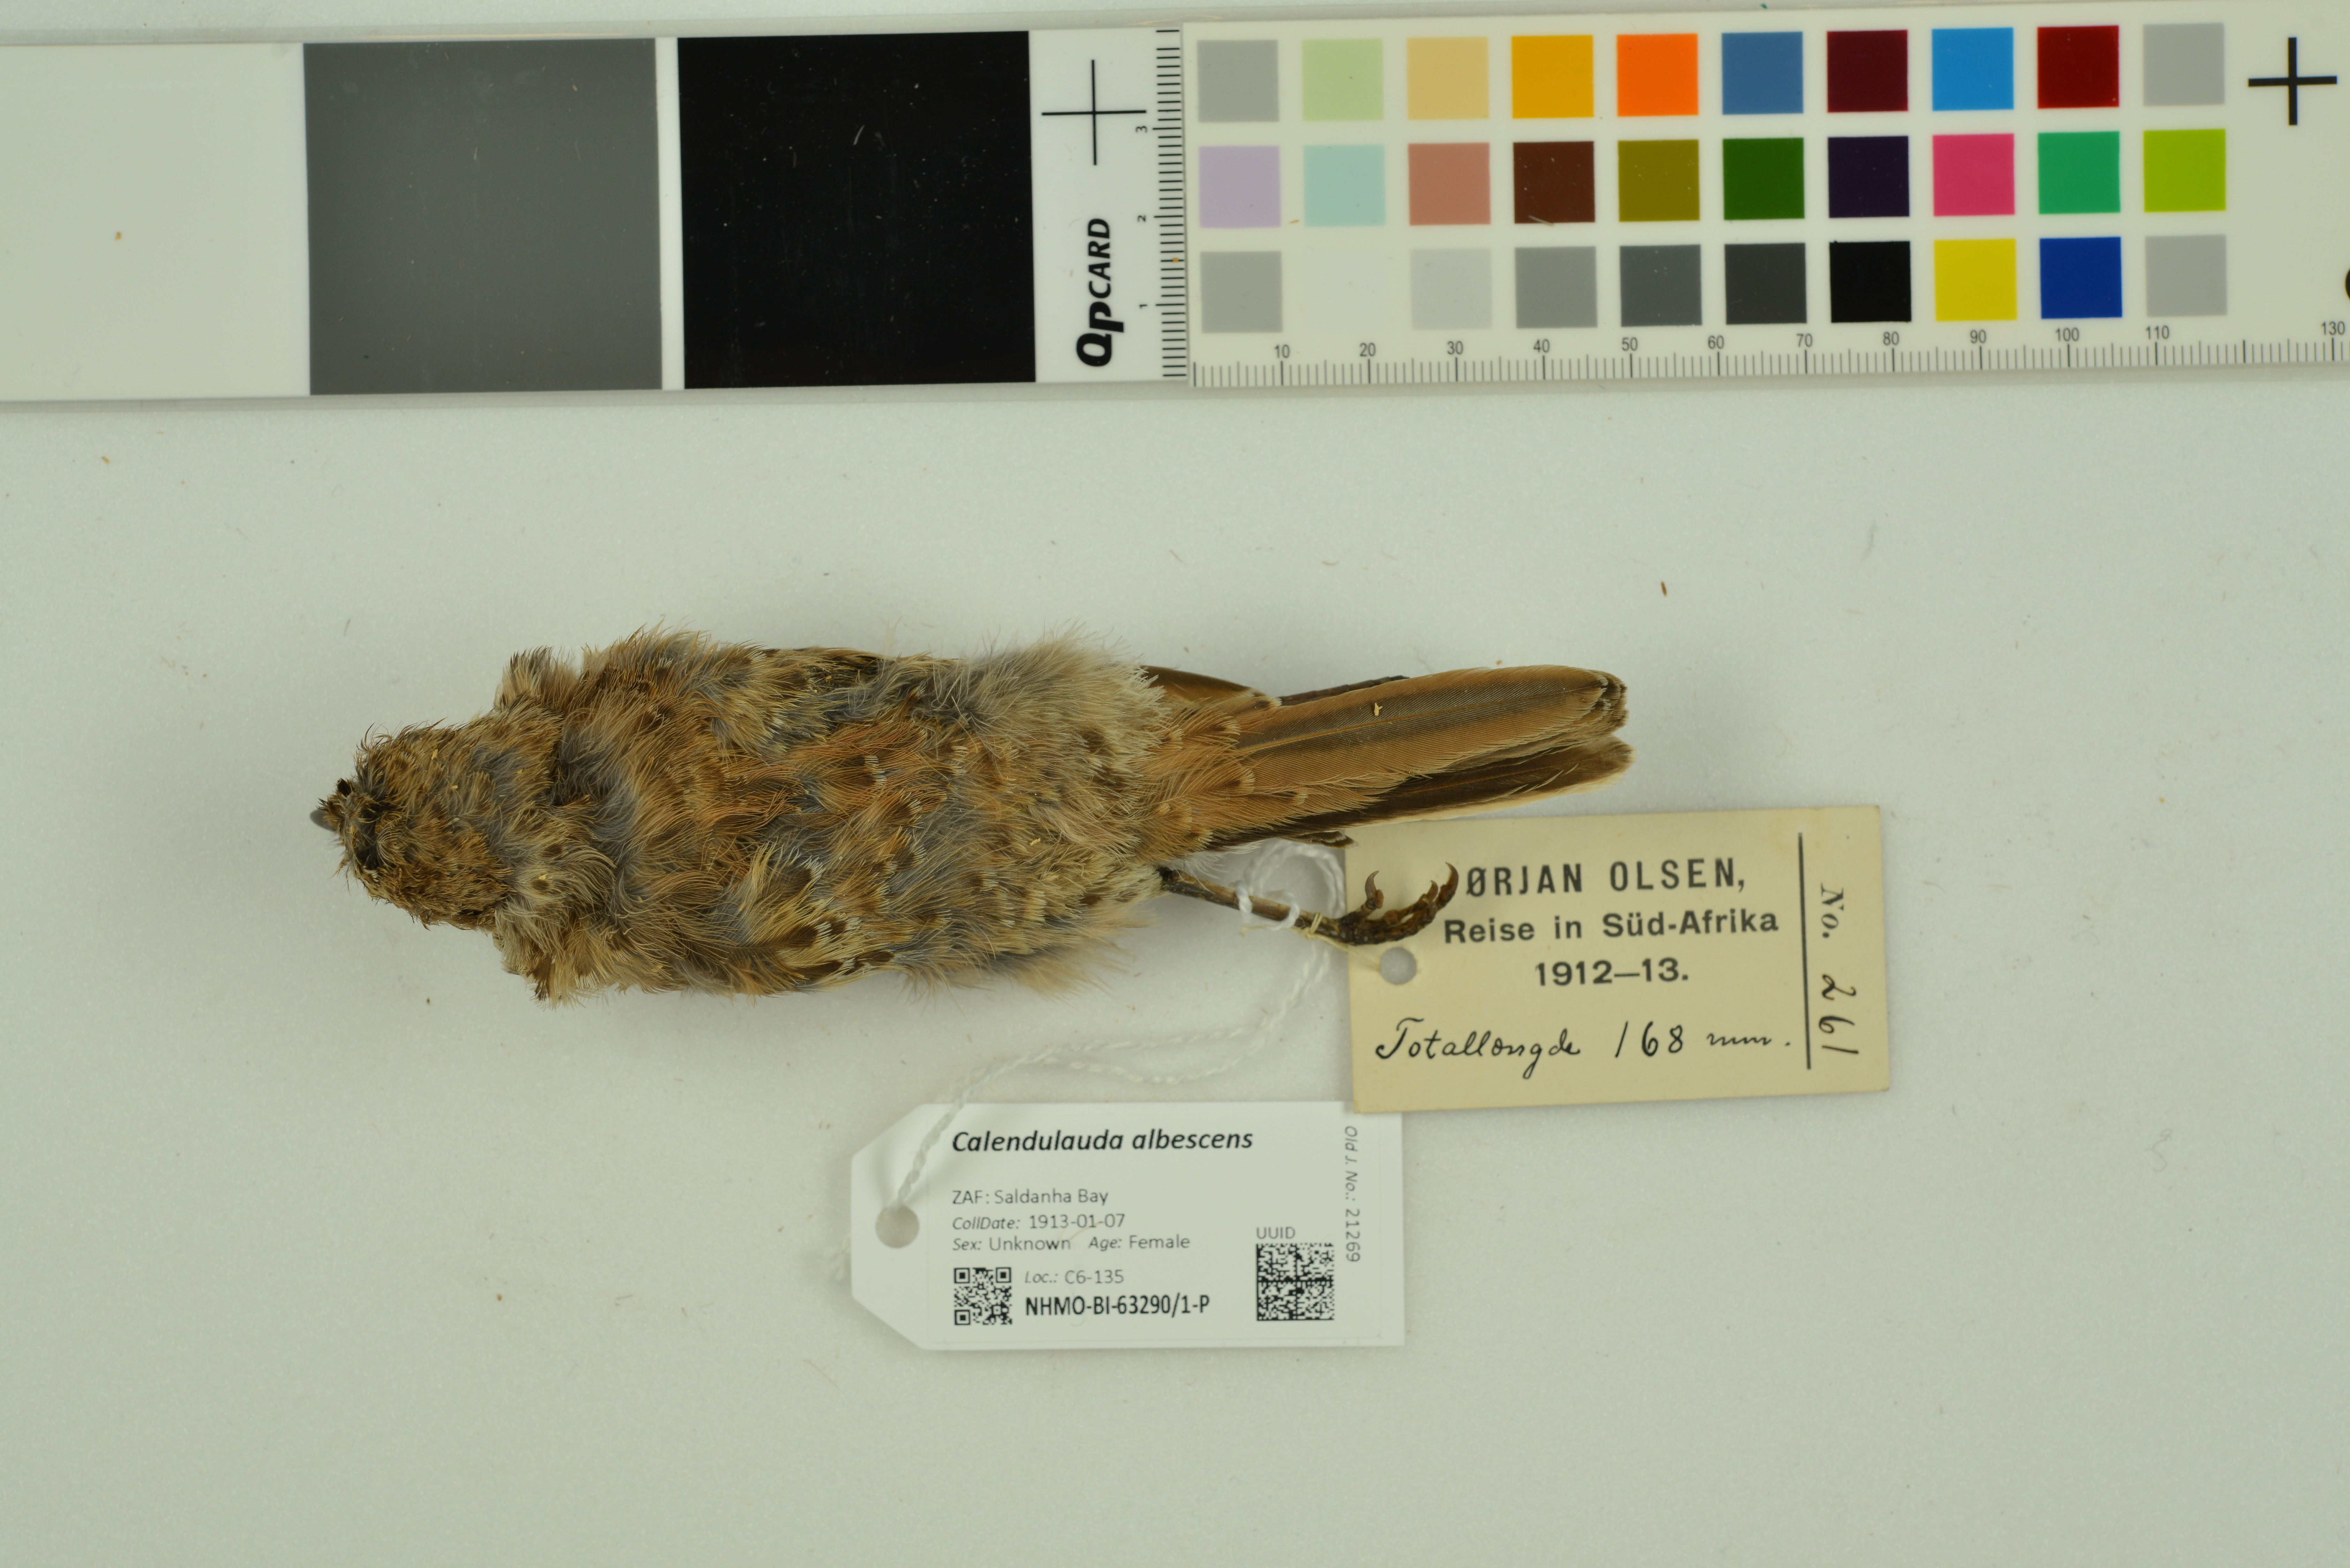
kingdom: Animalia
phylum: Chordata
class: Aves
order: Passeriformes
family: Alaudidae
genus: Calendulauda
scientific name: Calendulauda albescens
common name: Karoo lark
